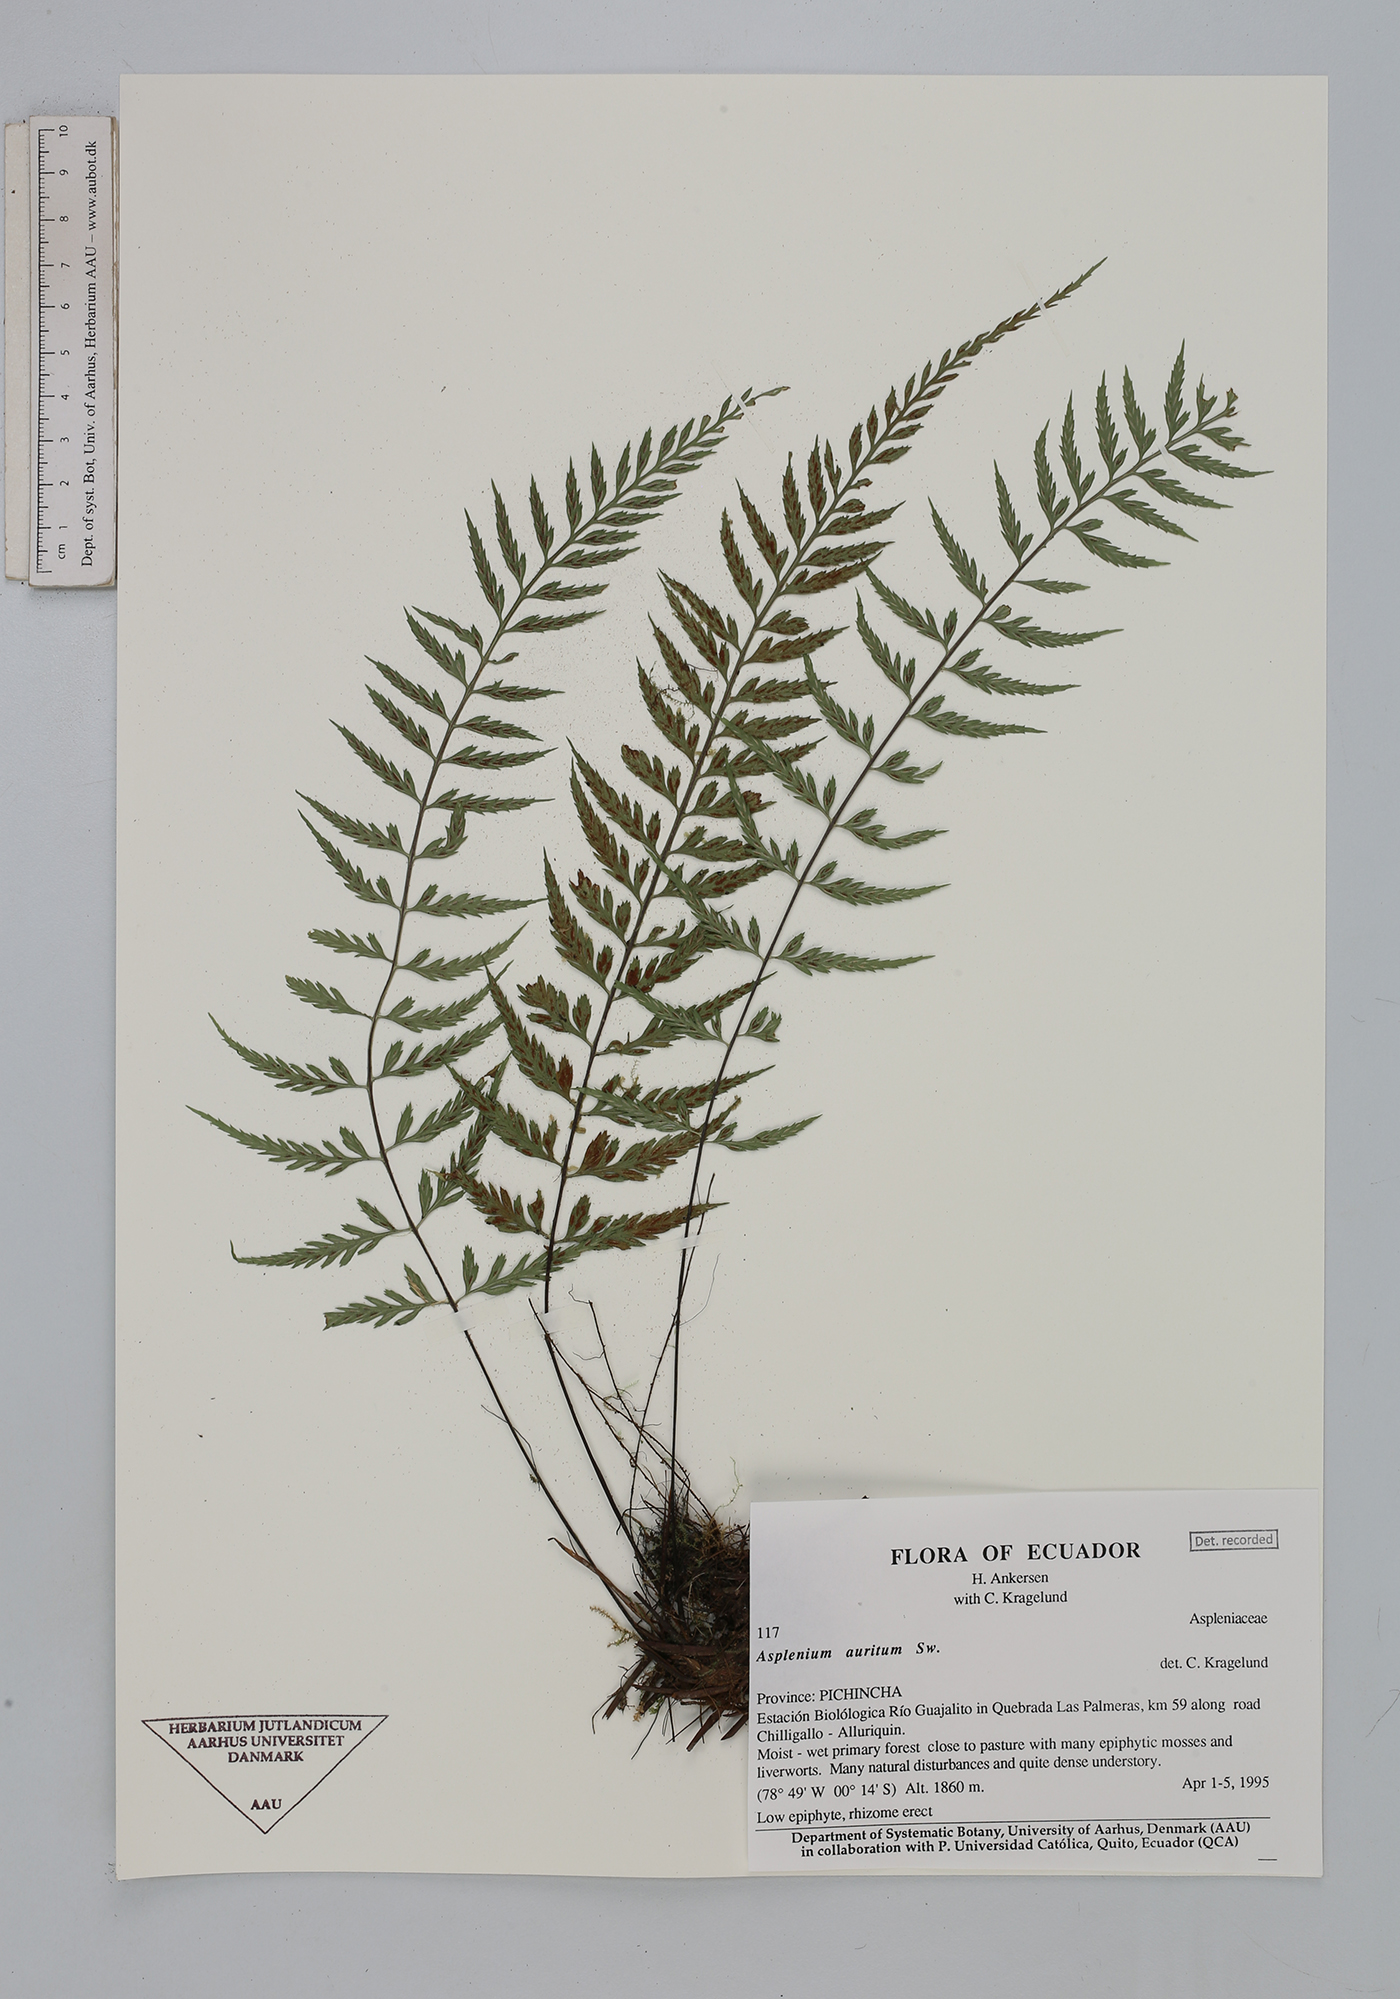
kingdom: Plantae
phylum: Tracheophyta
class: Polypodiopsida
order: Polypodiales
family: Aspleniaceae
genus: Asplenium
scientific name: Asplenium auritum
